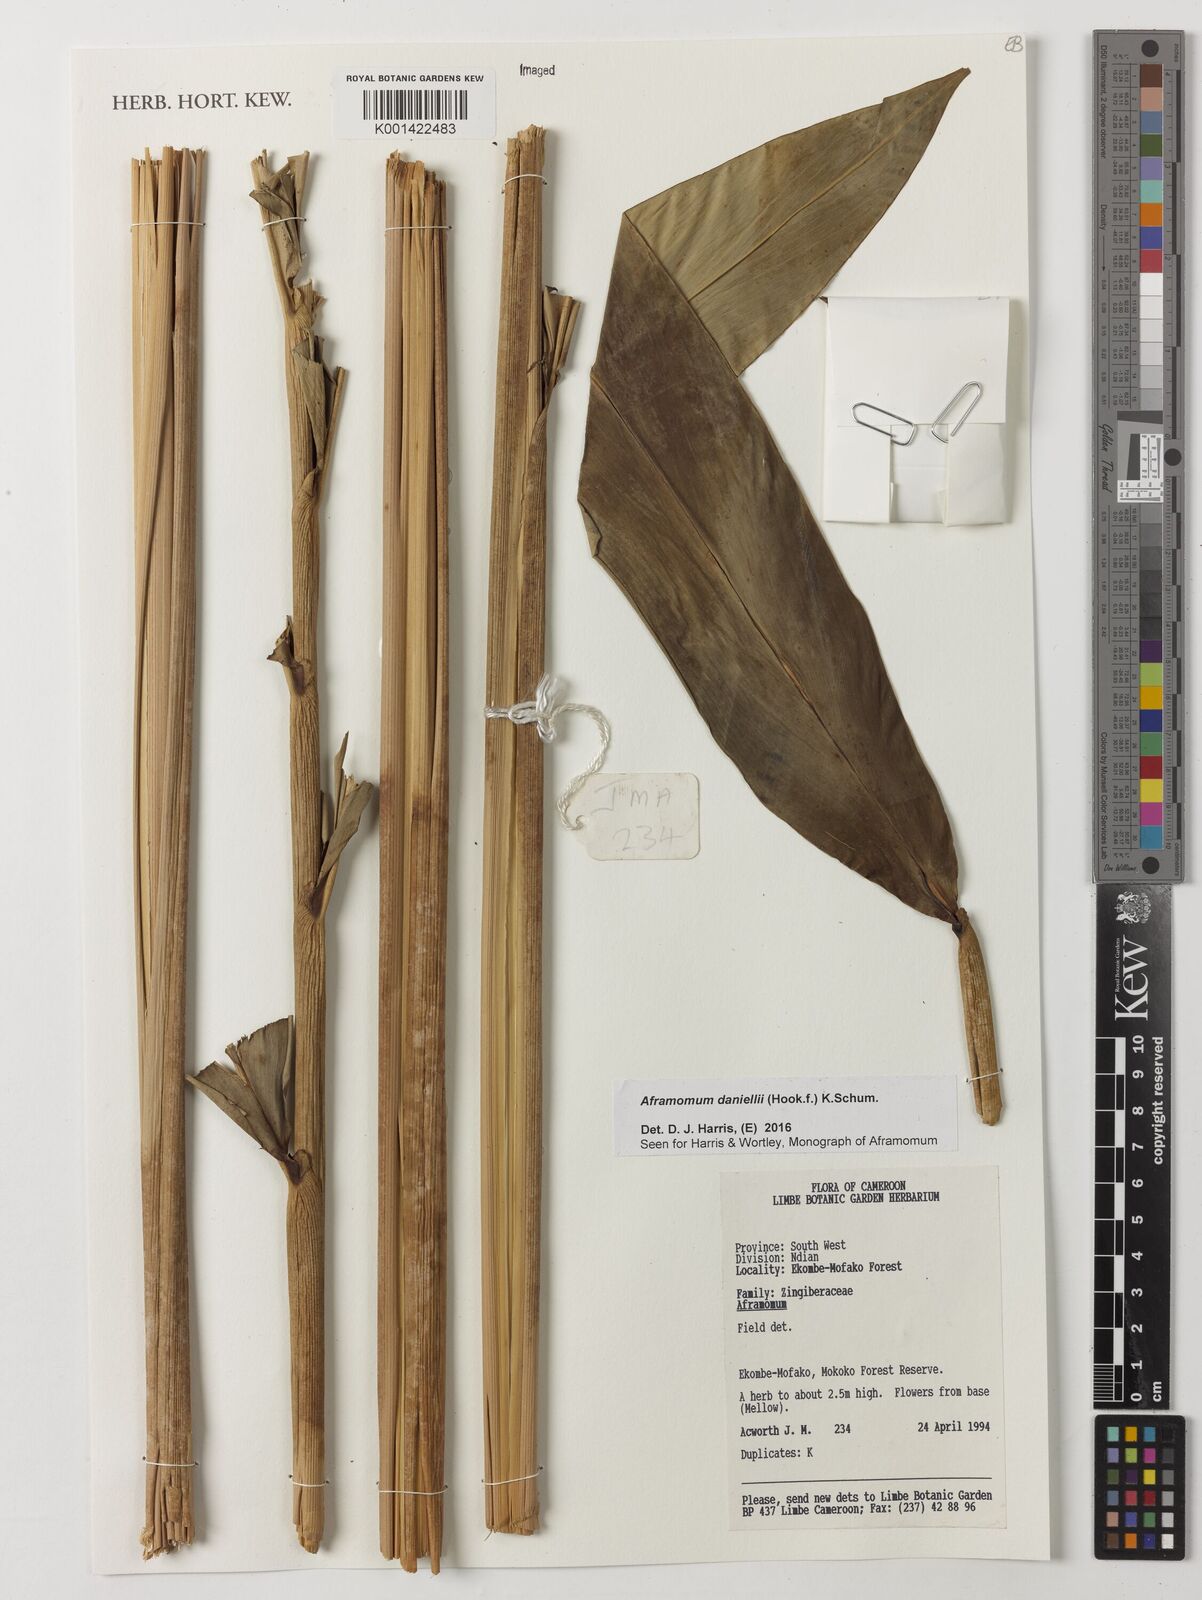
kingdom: Plantae
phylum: Tracheophyta
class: Liliopsida
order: Zingiberales
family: Zingiberaceae
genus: Aframomum
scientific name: Aframomum daniellii
